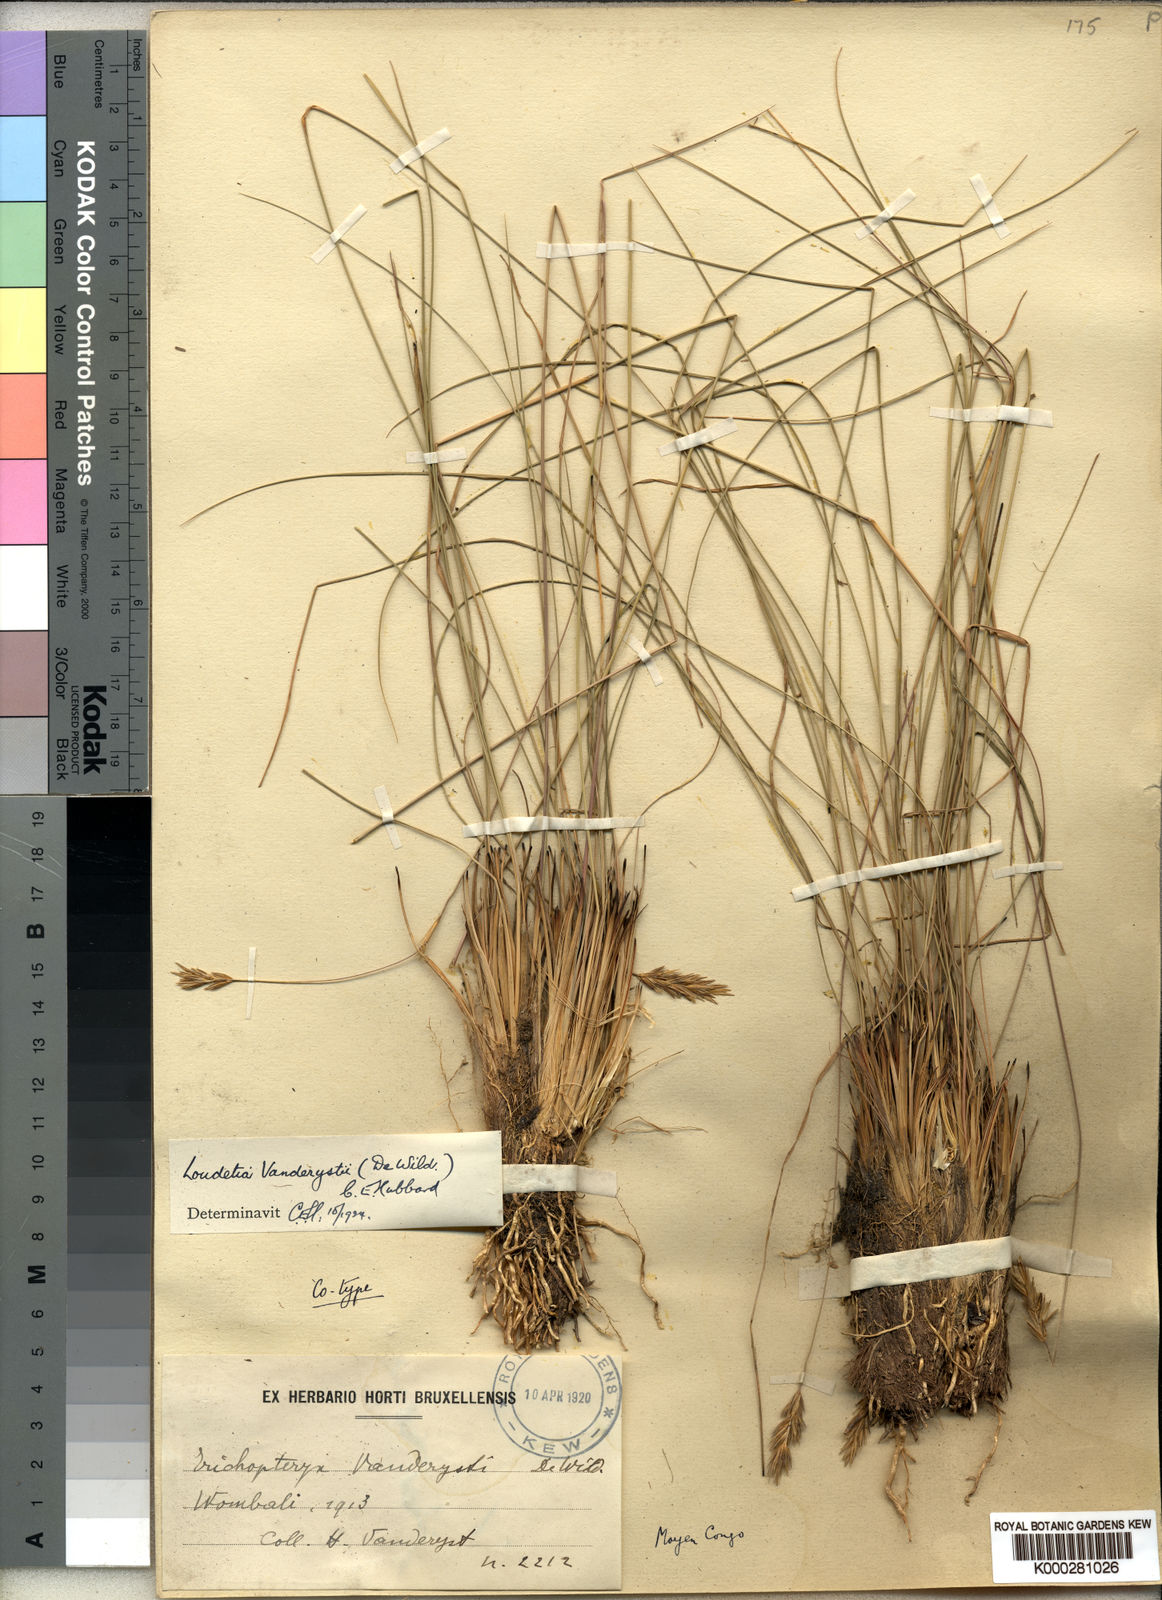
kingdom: Plantae
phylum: Tracheophyta
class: Liliopsida
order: Poales
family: Poaceae
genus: Loudetia
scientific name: Loudetia vanderystii
